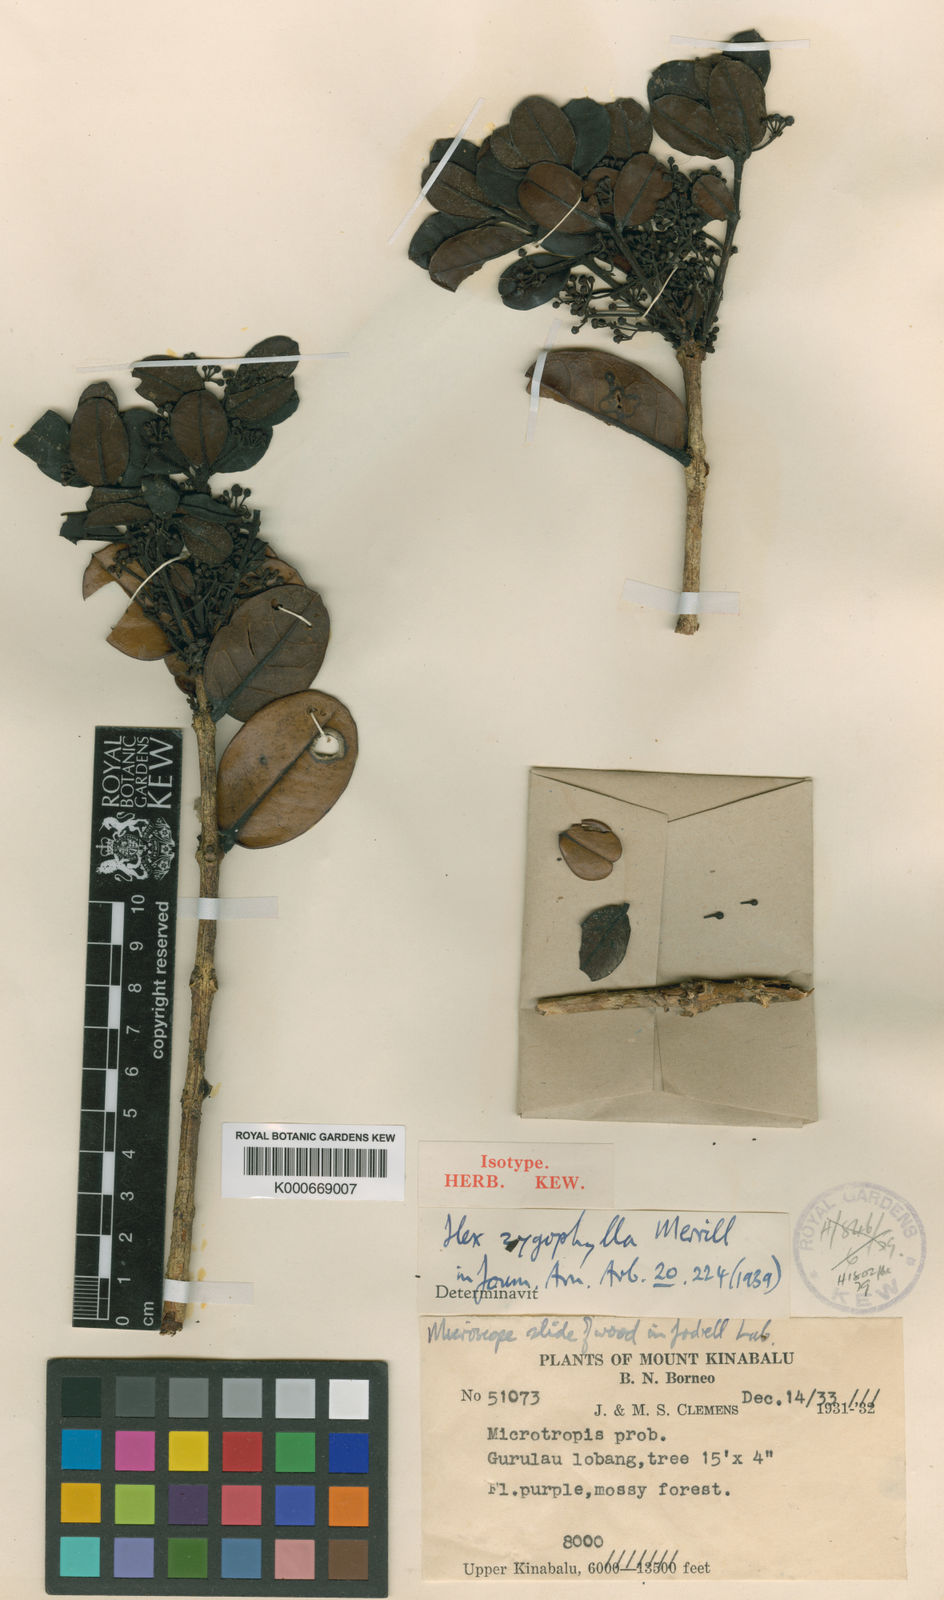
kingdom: Plantae
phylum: Tracheophyta
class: Magnoliopsida
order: Aquifoliales
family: Aquifoliaceae
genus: Ilex
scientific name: Ilex zygophylla
